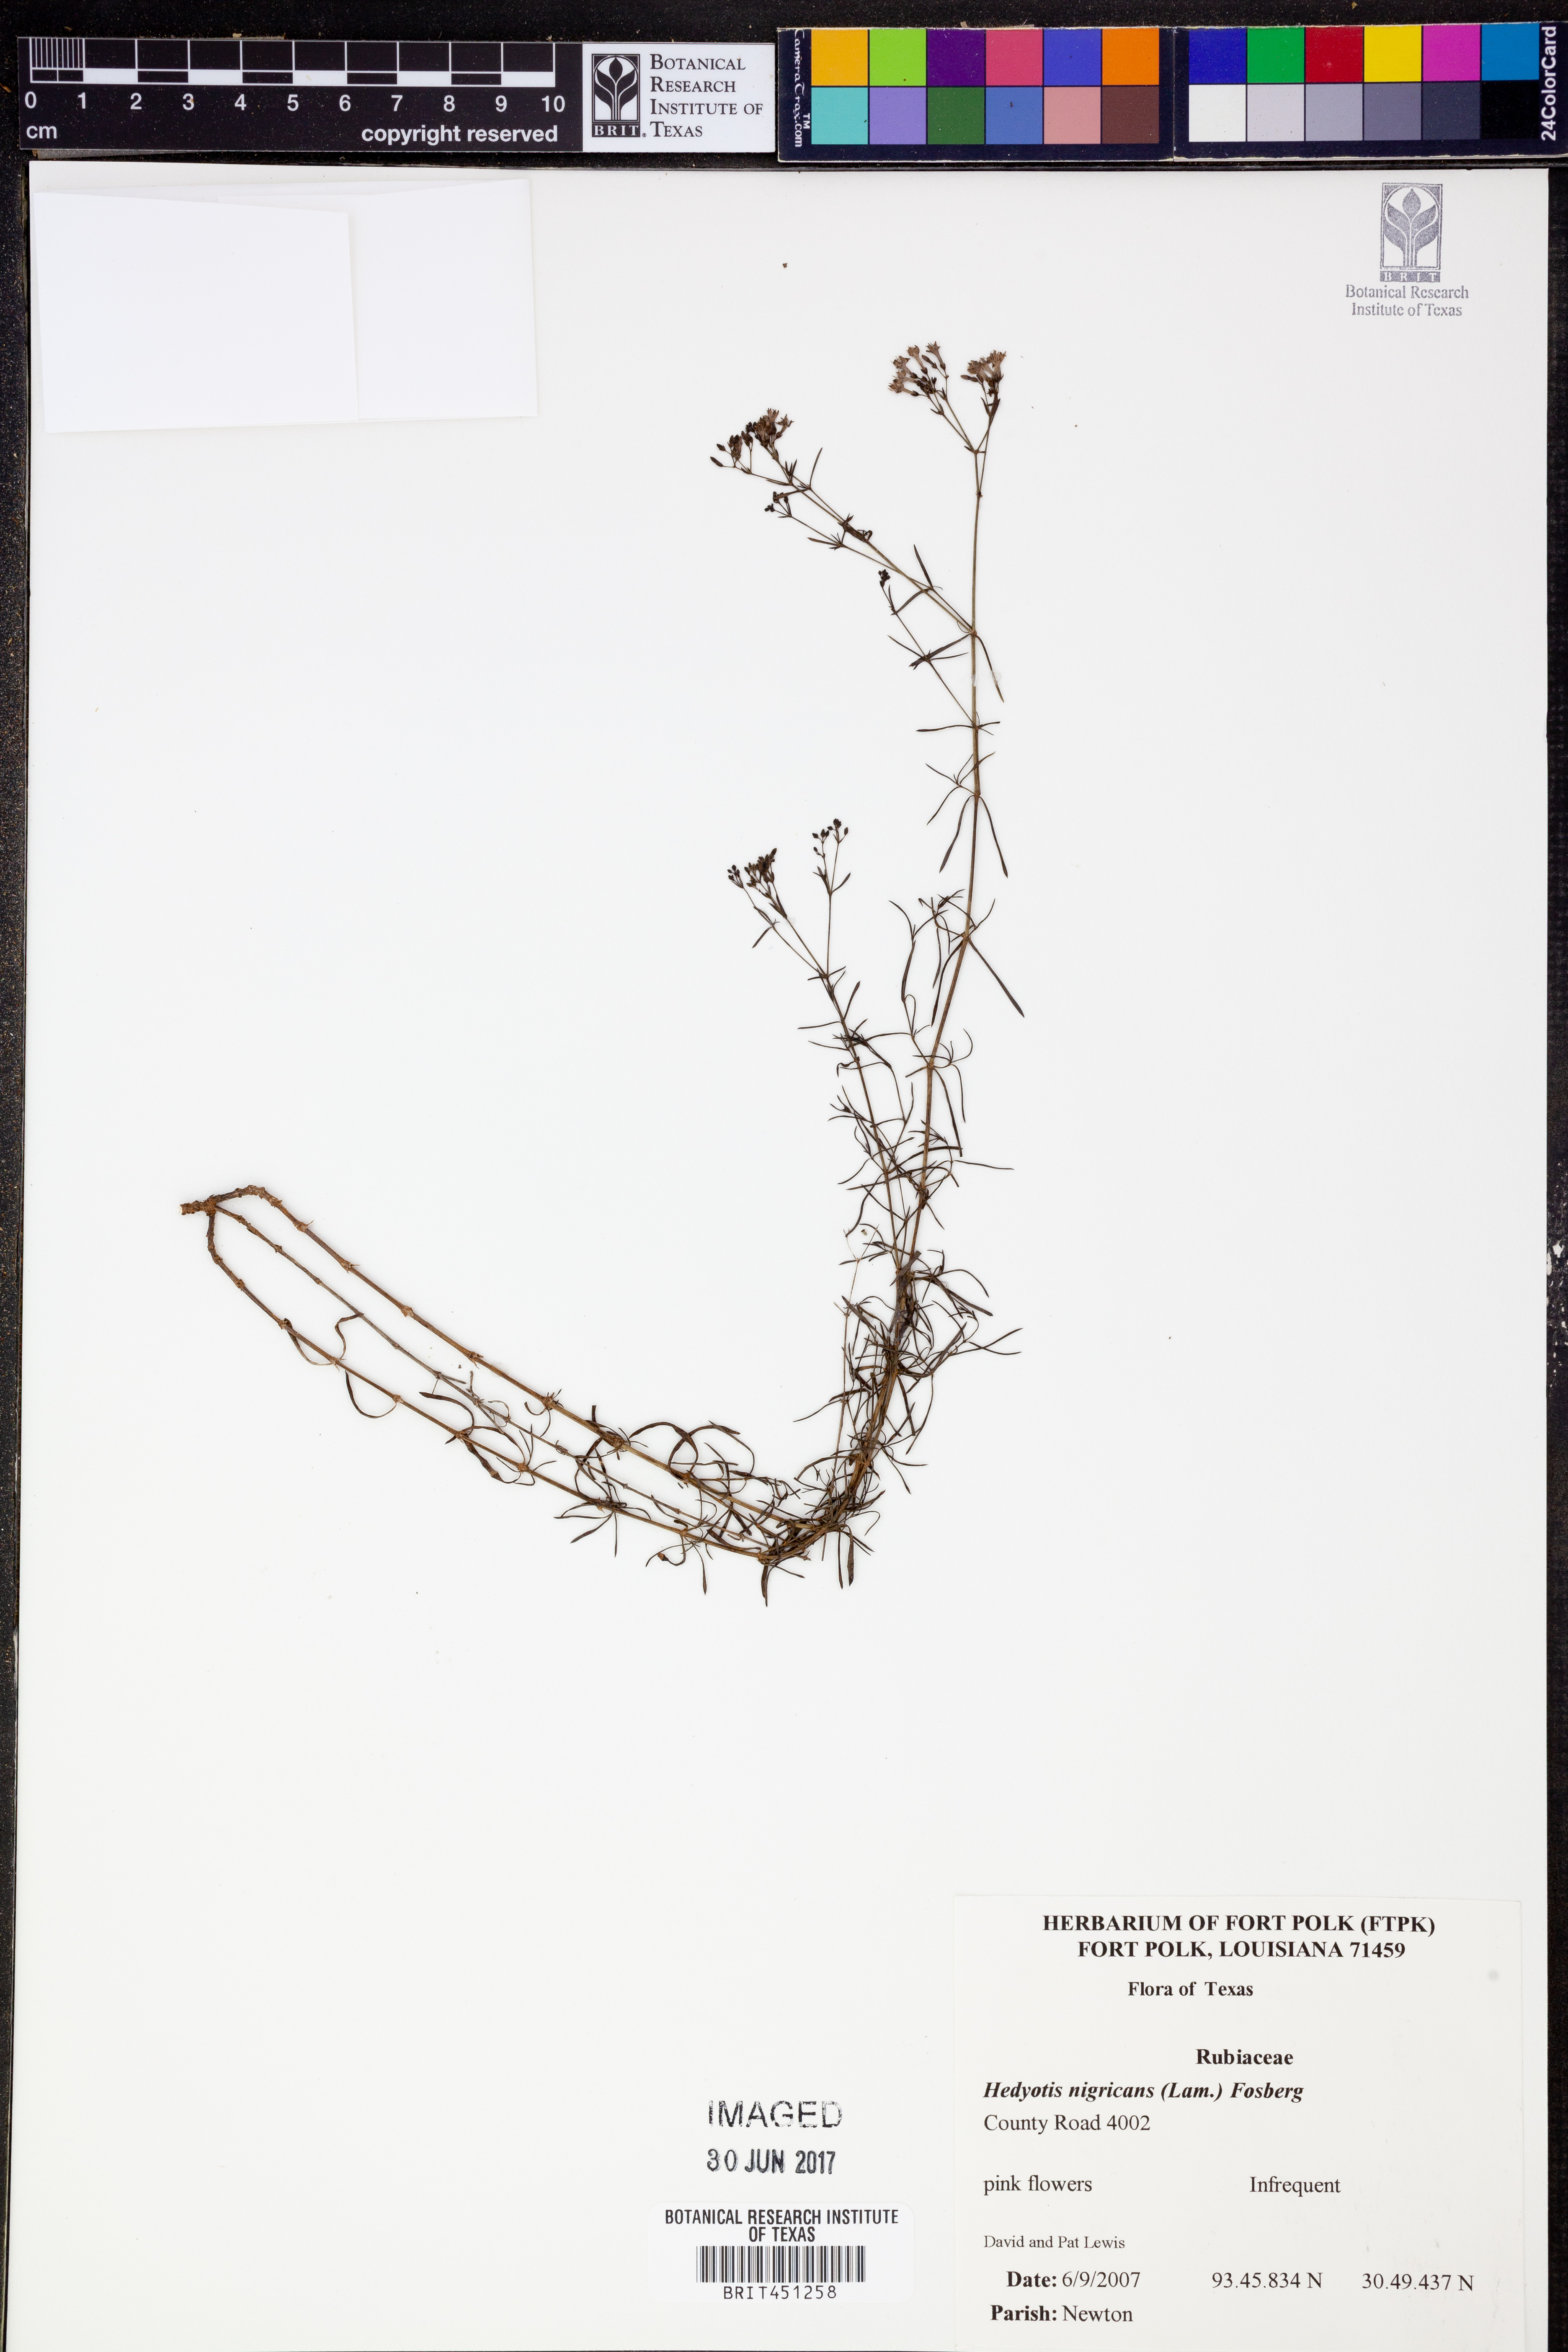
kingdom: Plantae
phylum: Tracheophyta
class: Magnoliopsida
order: Gentianales
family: Rubiaceae
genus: Stenaria
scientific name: Stenaria nigricans
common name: Diamondflowers
